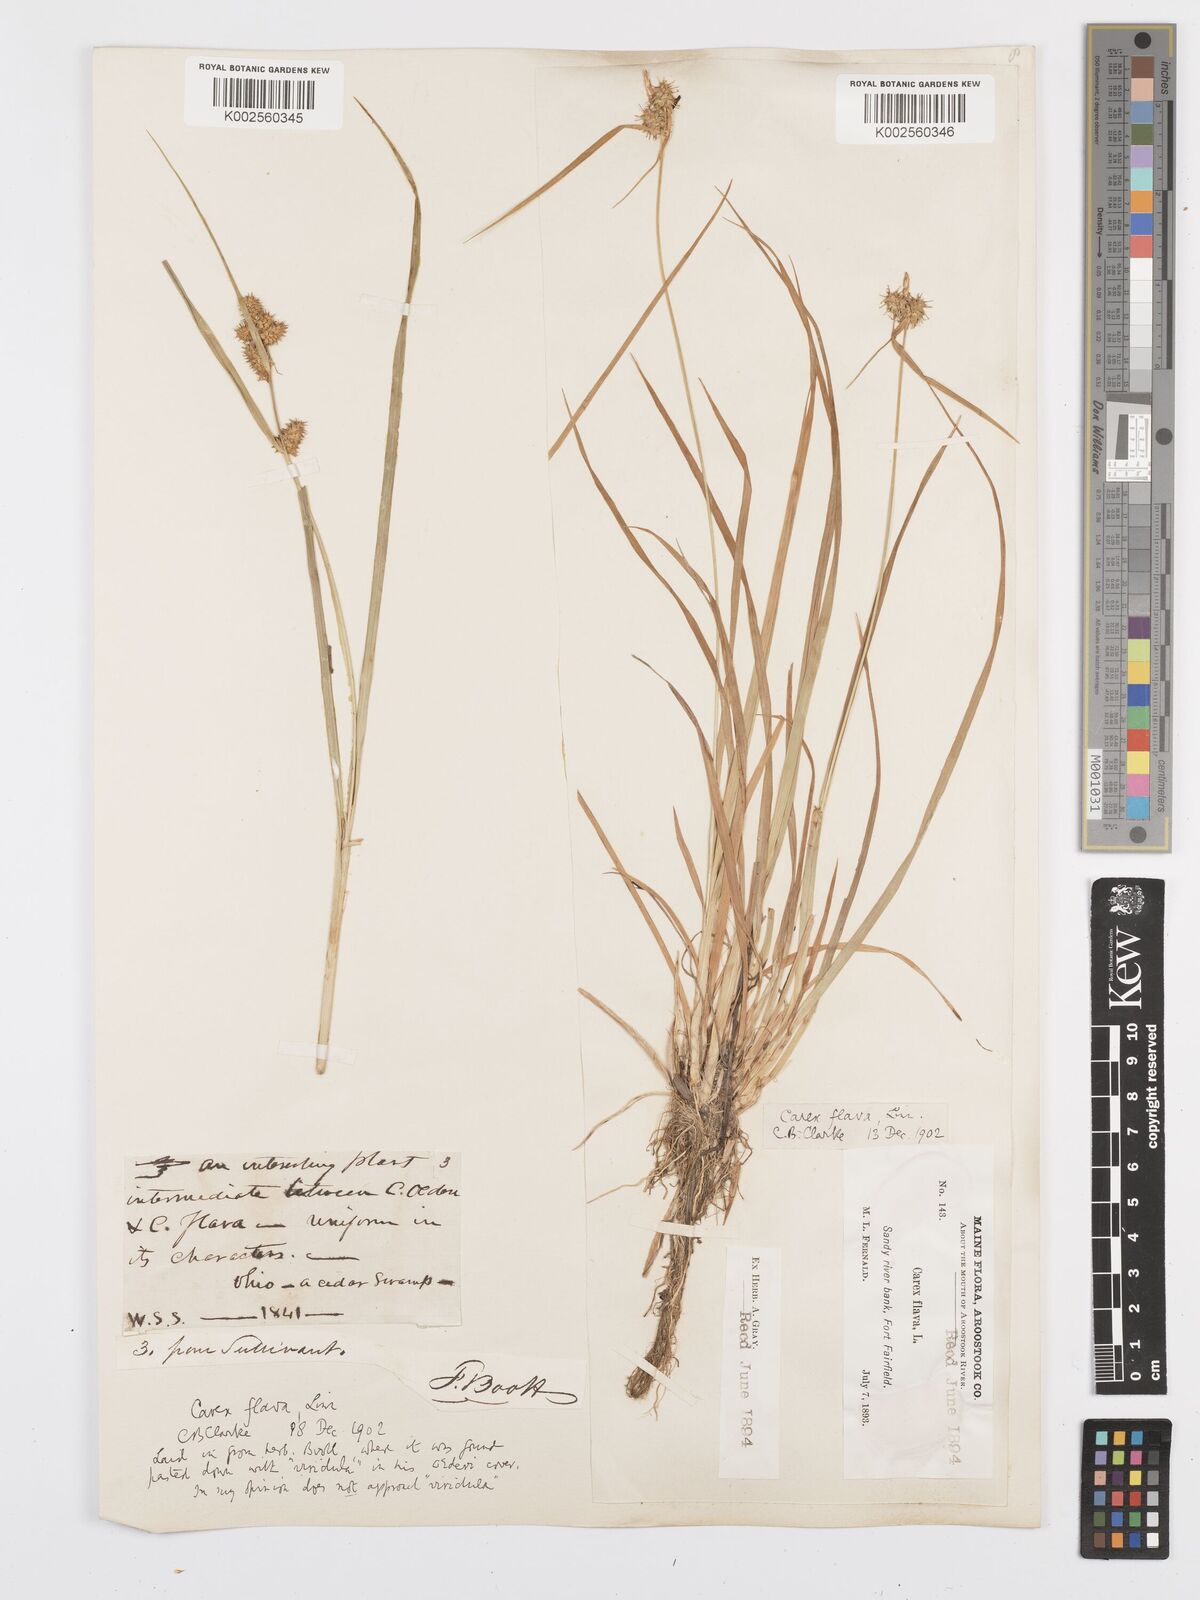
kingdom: Plantae
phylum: Tracheophyta
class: Liliopsida
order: Poales
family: Cyperaceae
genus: Carex
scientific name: Carex flava
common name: Large yellow-sedge
